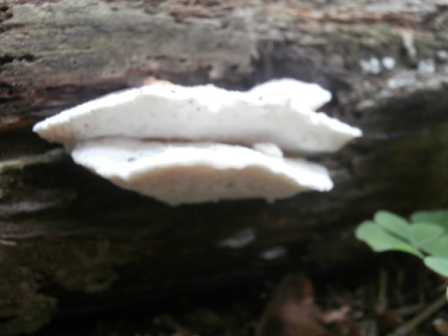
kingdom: Fungi
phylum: Basidiomycota
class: Agaricomycetes
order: Polyporales
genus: Amaropostia
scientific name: Amaropostia stiptica
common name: bitter kødporesvamp
